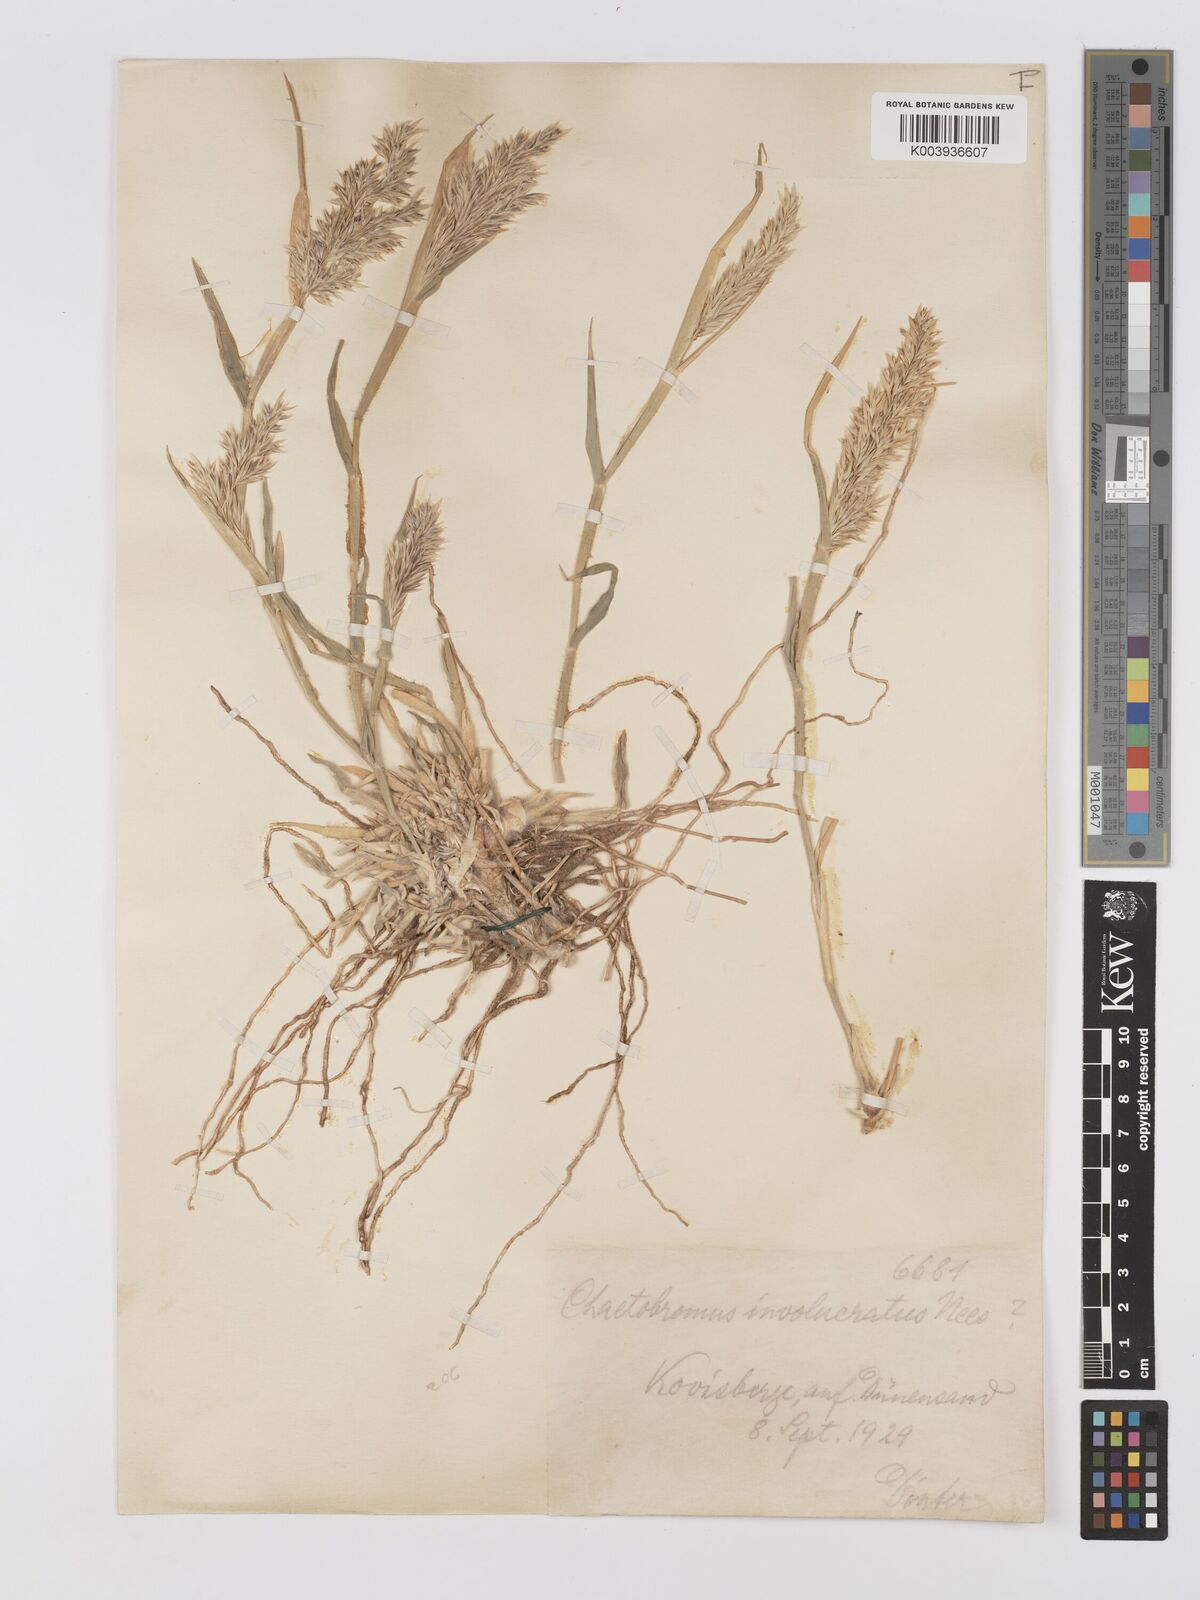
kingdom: Plantae
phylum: Tracheophyta
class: Liliopsida
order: Poales
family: Poaceae
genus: Centropodia
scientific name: Centropodia glauca
